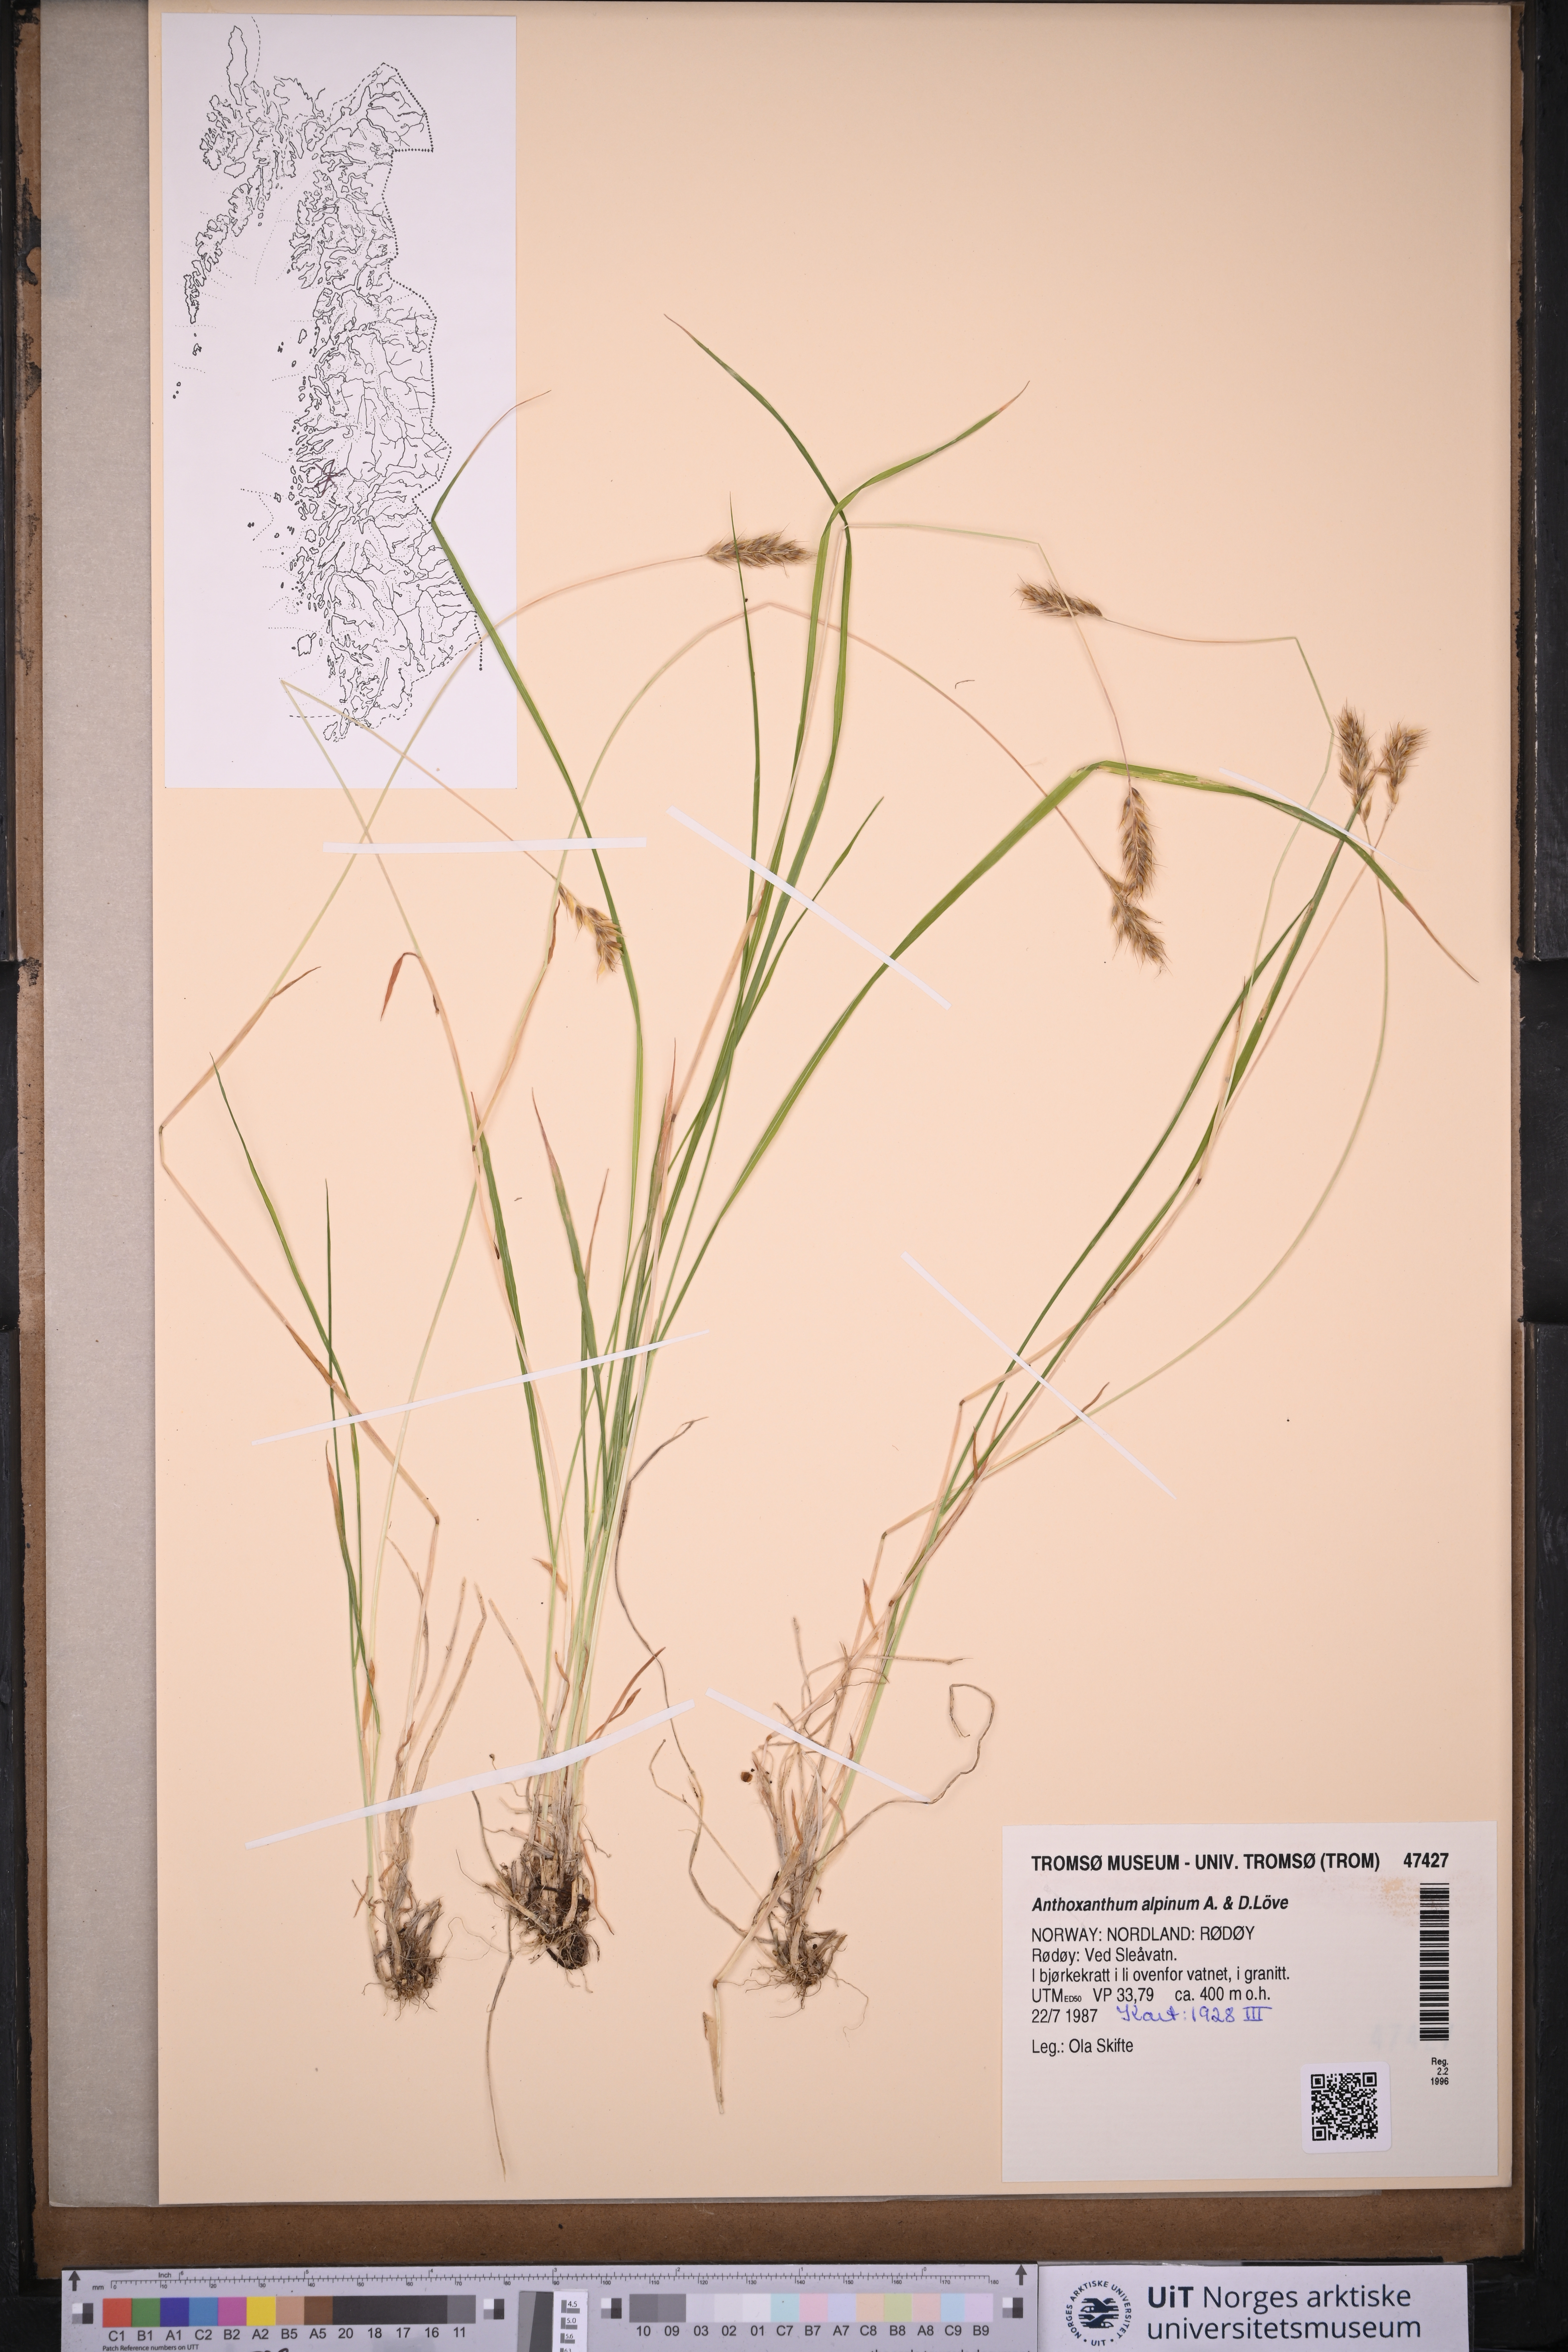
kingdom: Plantae
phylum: Tracheophyta
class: Liliopsida
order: Poales
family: Poaceae
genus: Anthoxanthum
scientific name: Anthoxanthum nipponicum
